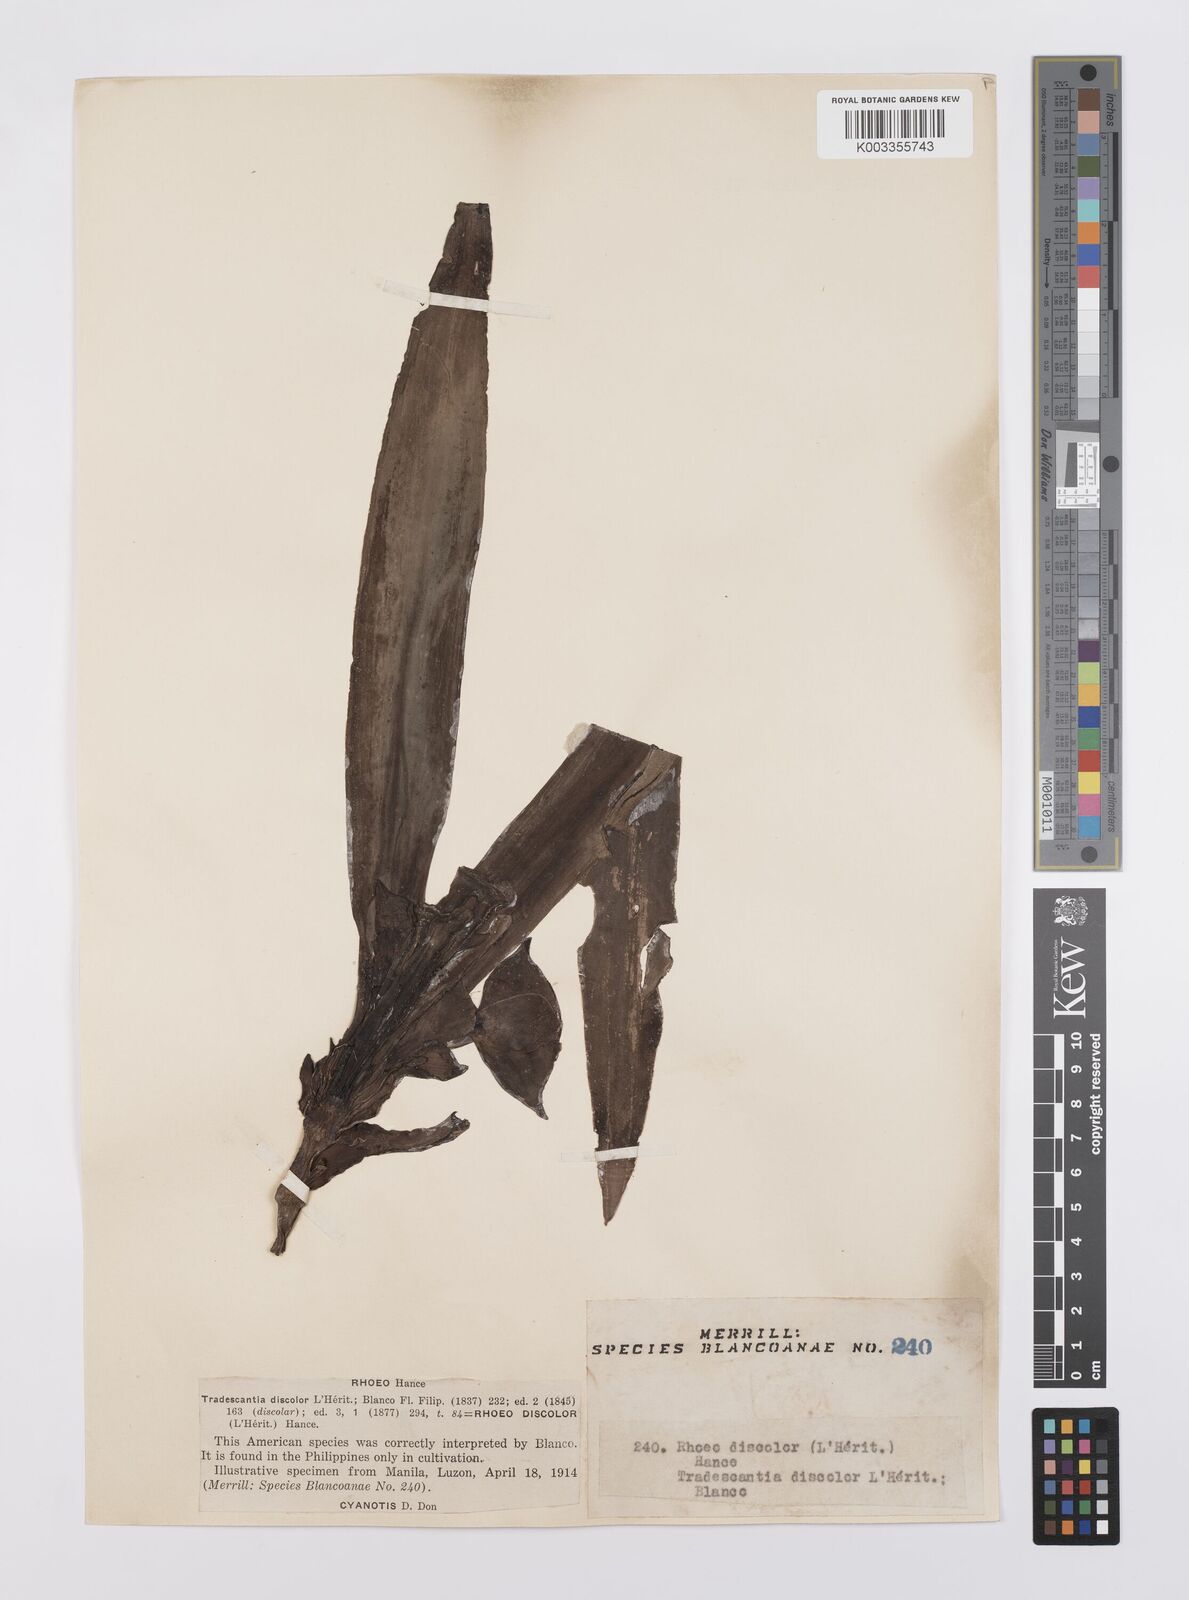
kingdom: Plantae
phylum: Tracheophyta
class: Liliopsida
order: Commelinales
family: Commelinaceae
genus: Tradescantia
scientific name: Tradescantia spathacea
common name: Boatlily
